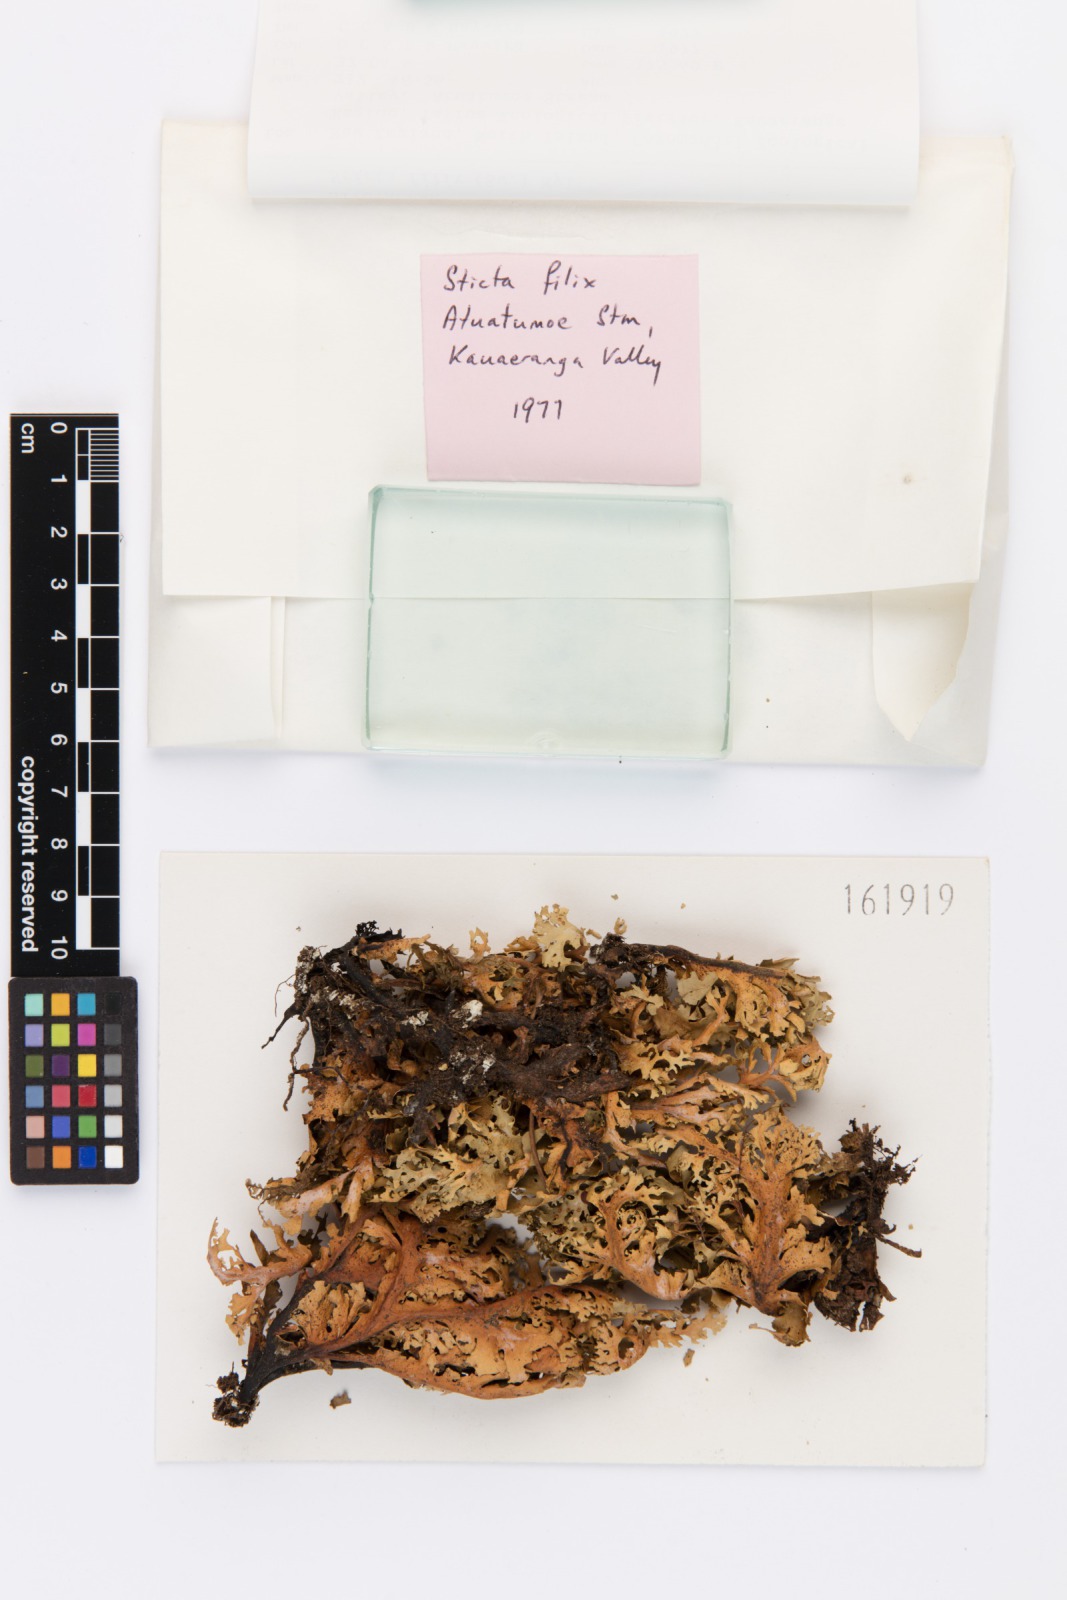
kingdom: Fungi
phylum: Ascomycota
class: Lecanoromycetes
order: Peltigerales
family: Lobariaceae
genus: Sticta
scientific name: Sticta filix
